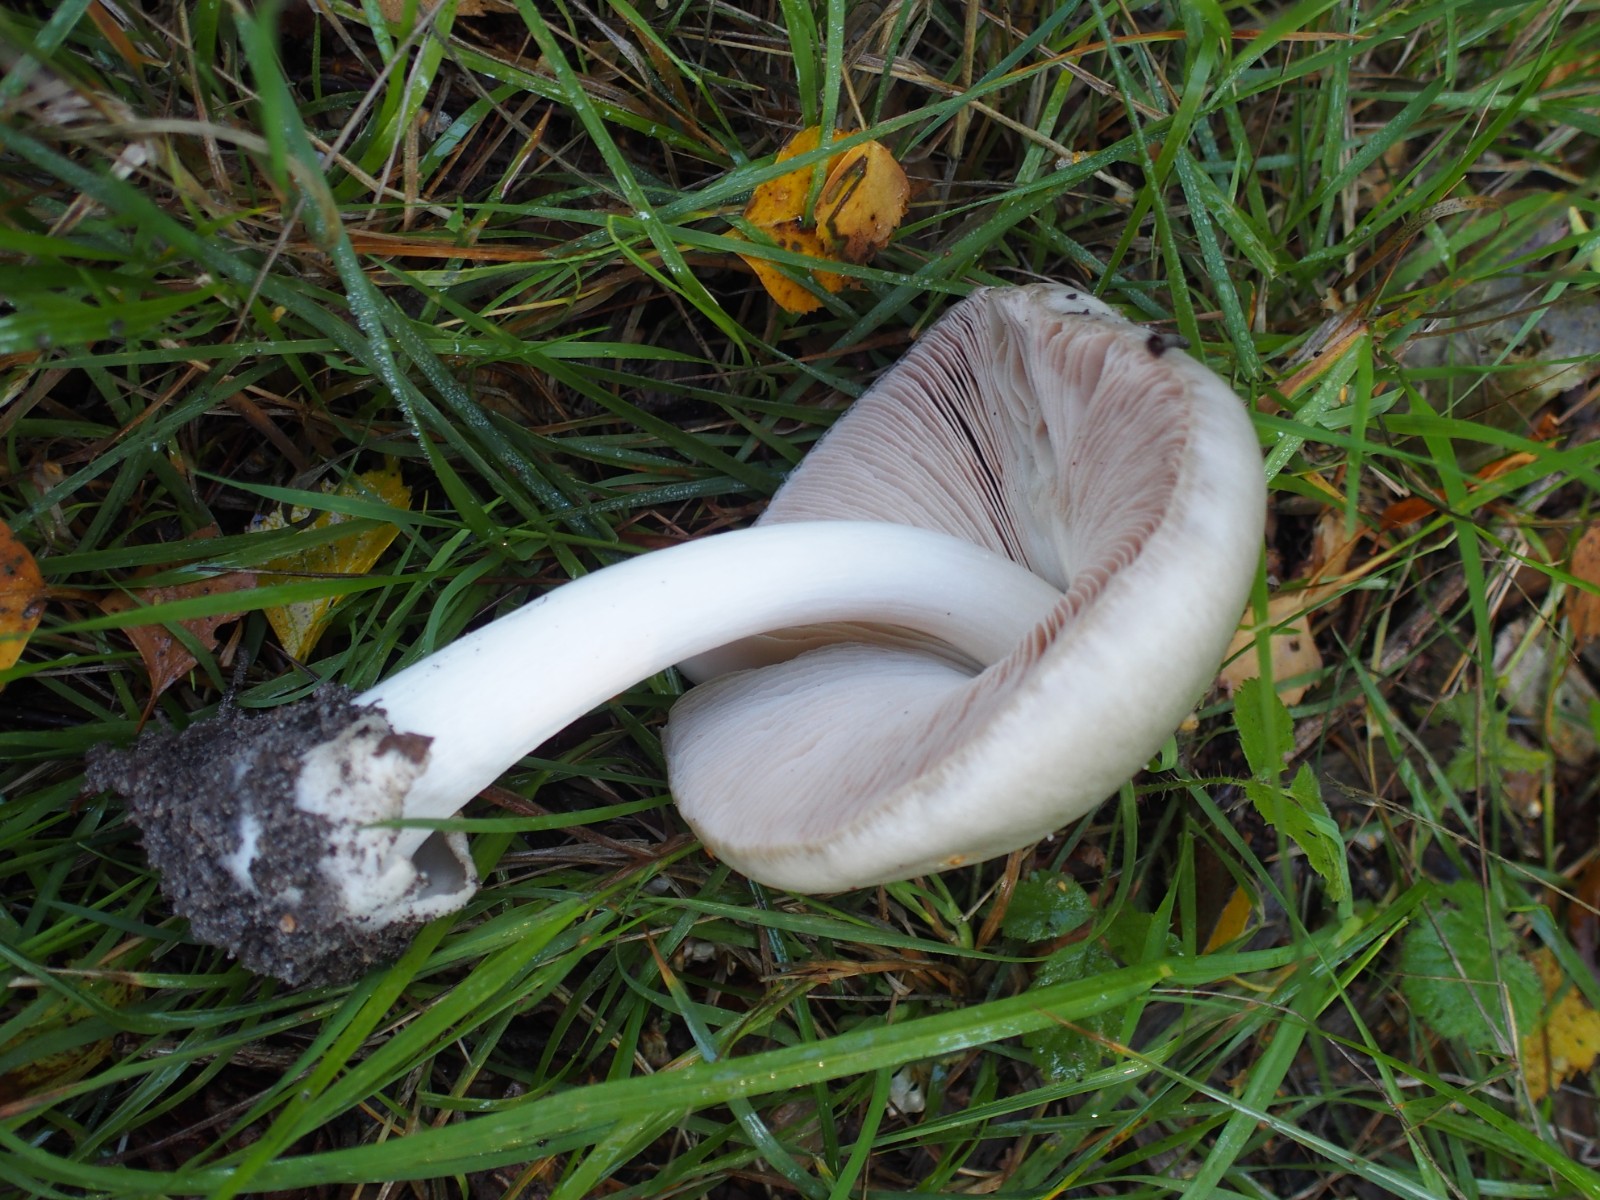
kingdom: Fungi
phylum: Basidiomycota
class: Agaricomycetes
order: Agaricales
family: Pluteaceae
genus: Volvopluteus
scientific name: Volvopluteus gloiocephalus
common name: høj posesvamp
